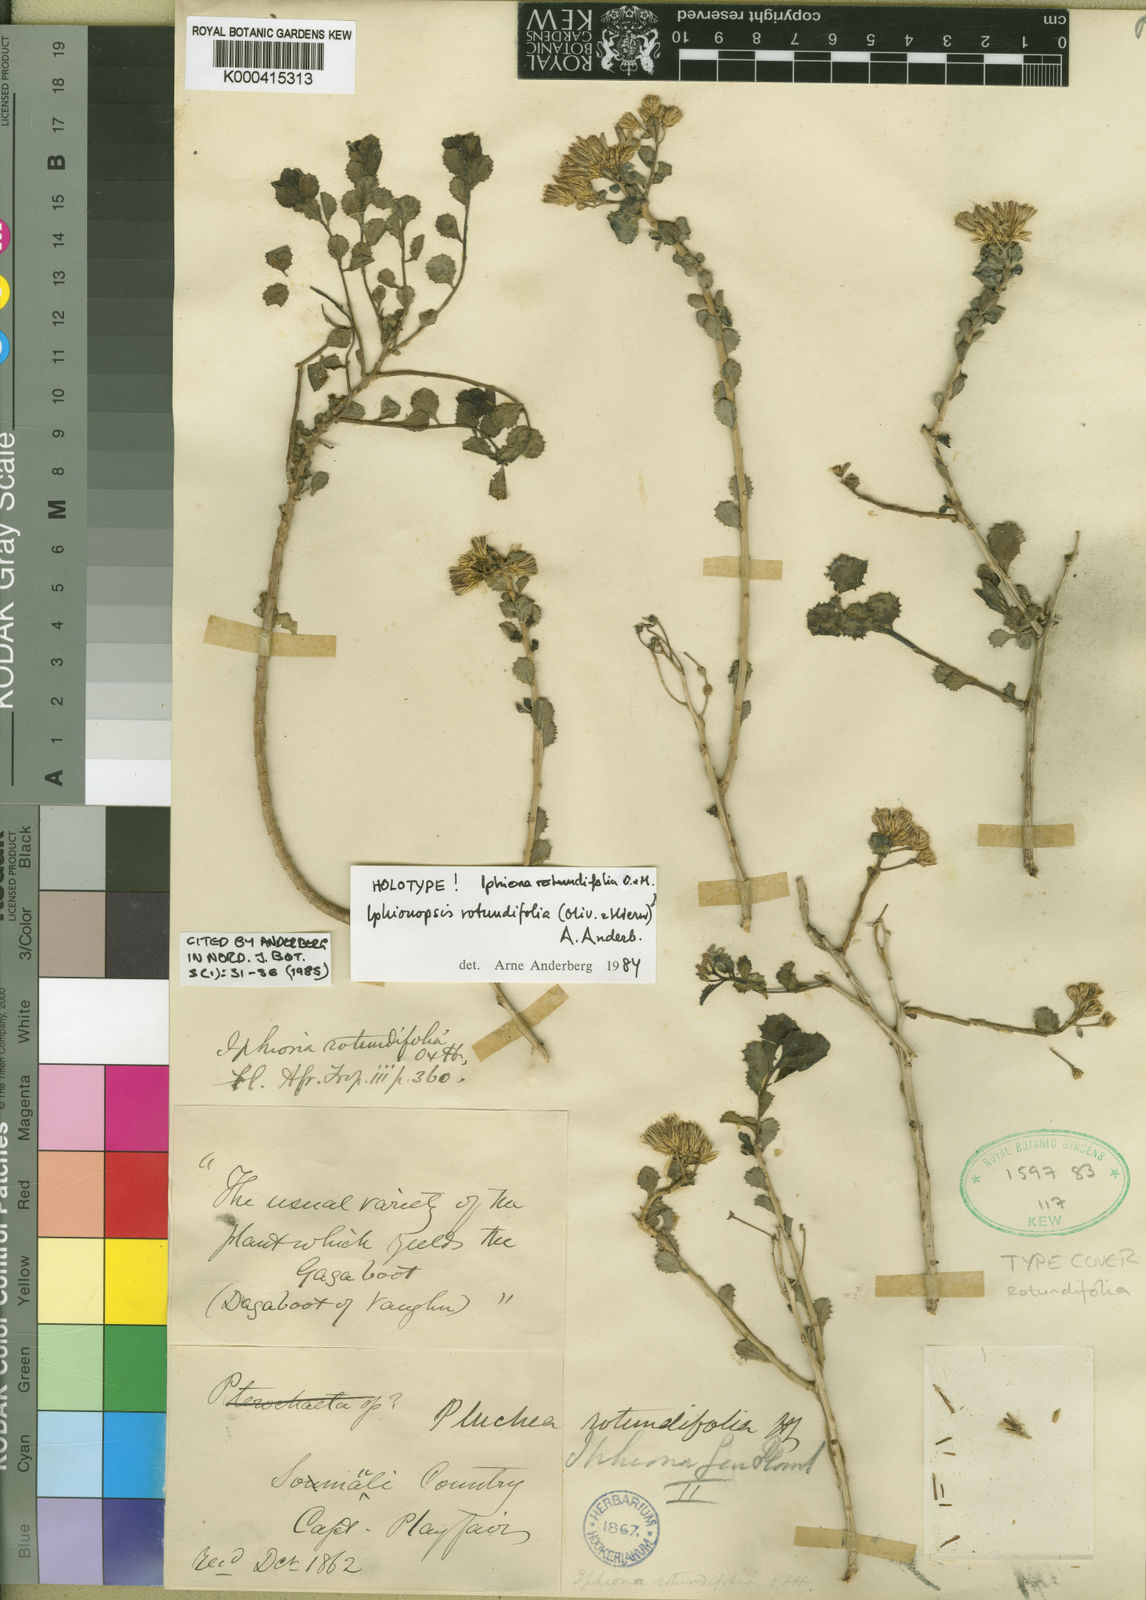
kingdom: Plantae
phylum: Tracheophyta
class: Magnoliopsida
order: Asterales
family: Asteraceae
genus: Iphionopsis
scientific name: Iphionopsis rotundifolia
